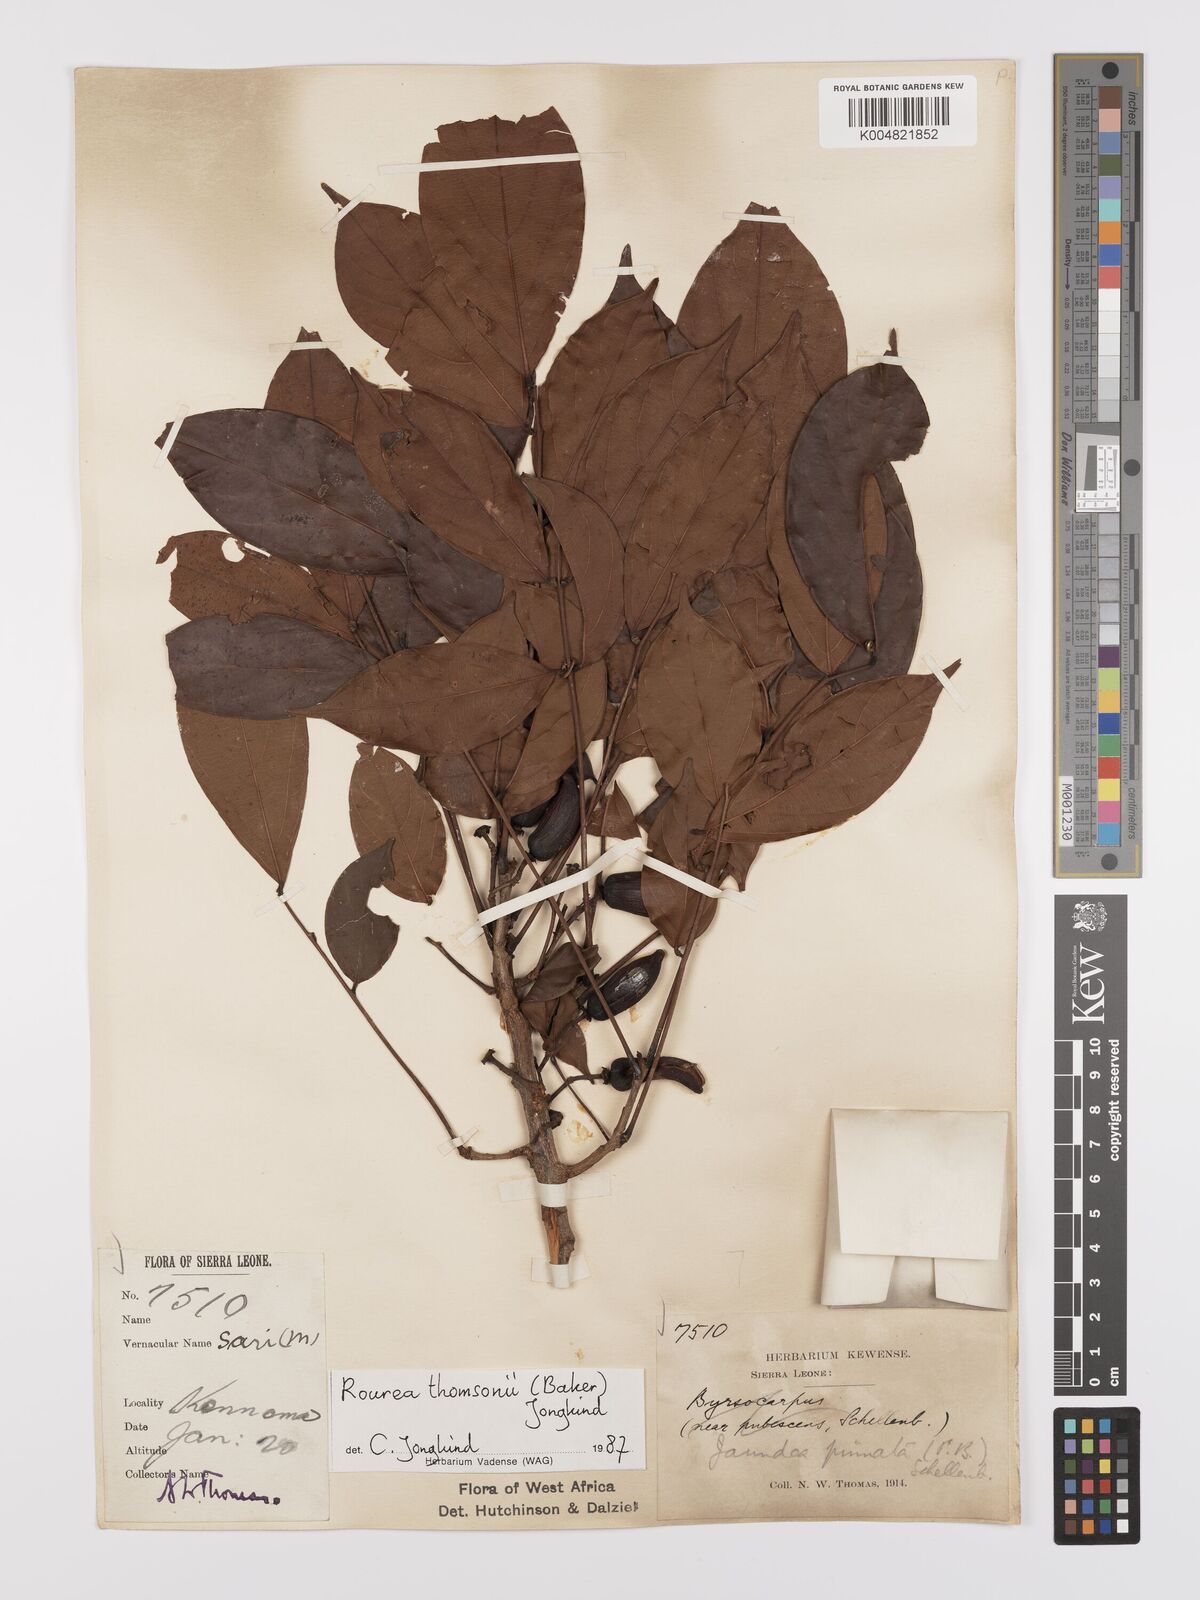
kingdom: Plantae
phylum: Tracheophyta
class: Magnoliopsida
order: Oxalidales
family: Connaraceae
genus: Rourea
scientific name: Rourea pinnata
